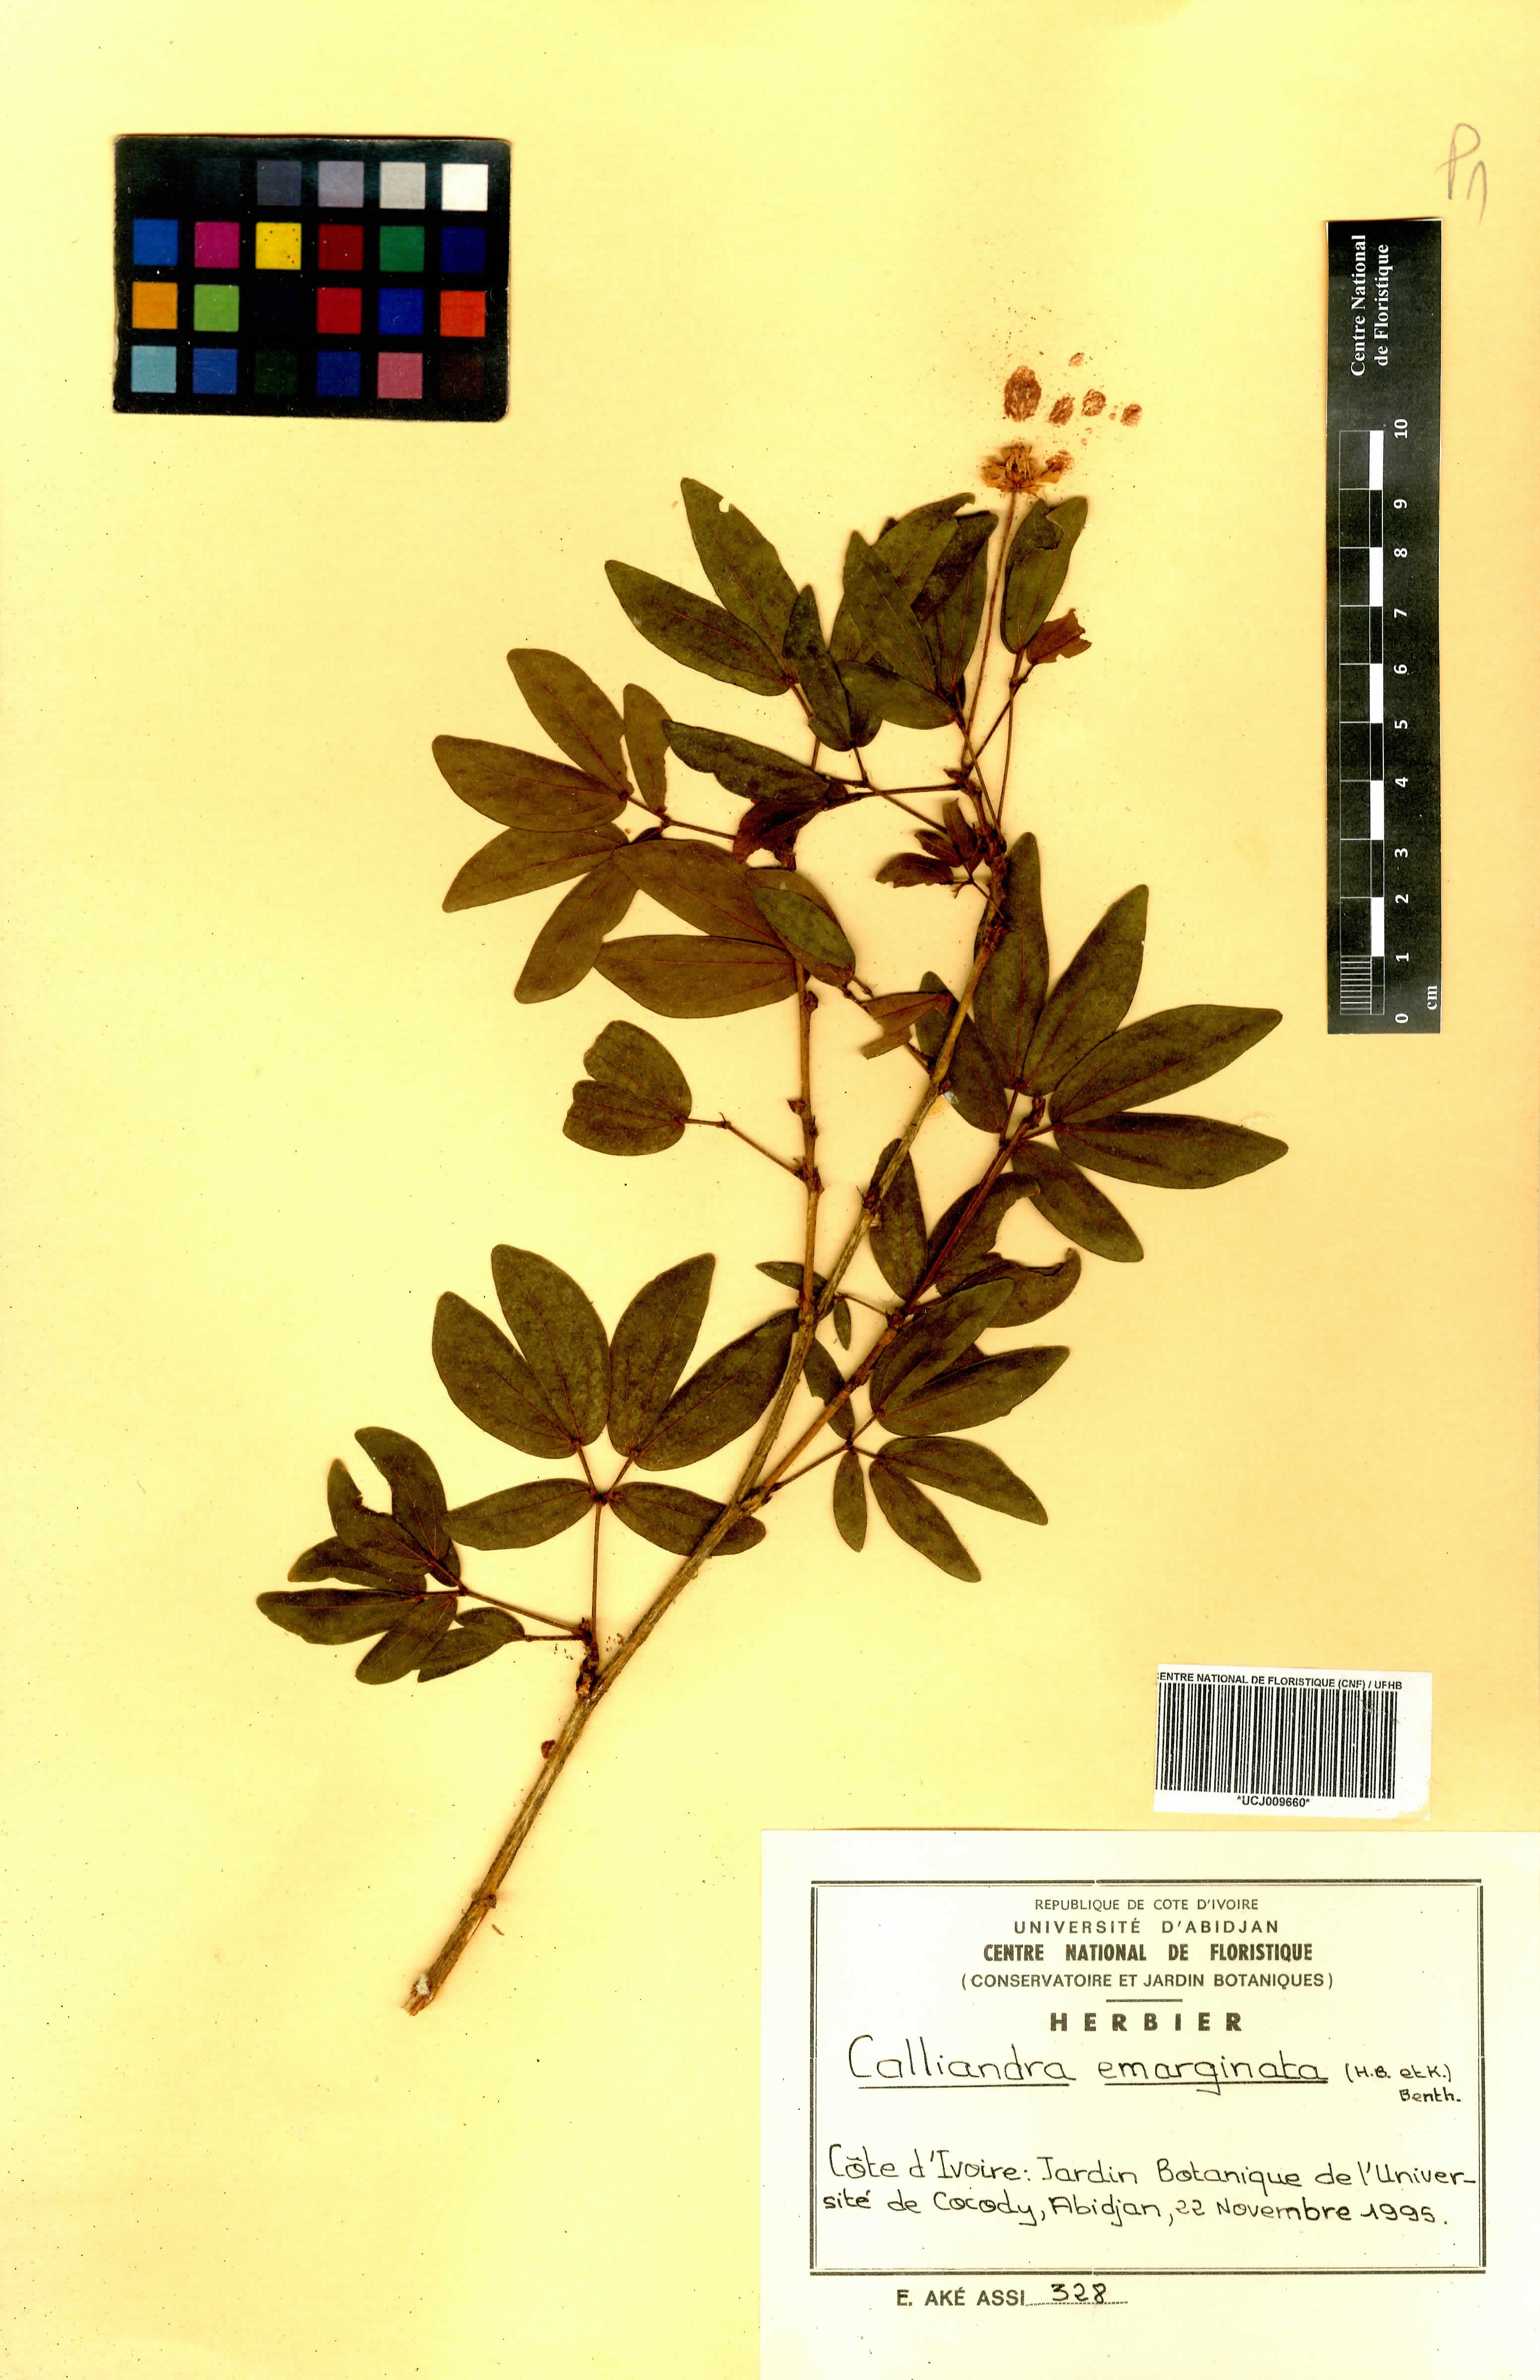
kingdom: Plantae
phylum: Tracheophyta
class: Magnoliopsida
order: Fabales
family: Fabaceae
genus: Calliandra
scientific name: Calliandra tergemina
